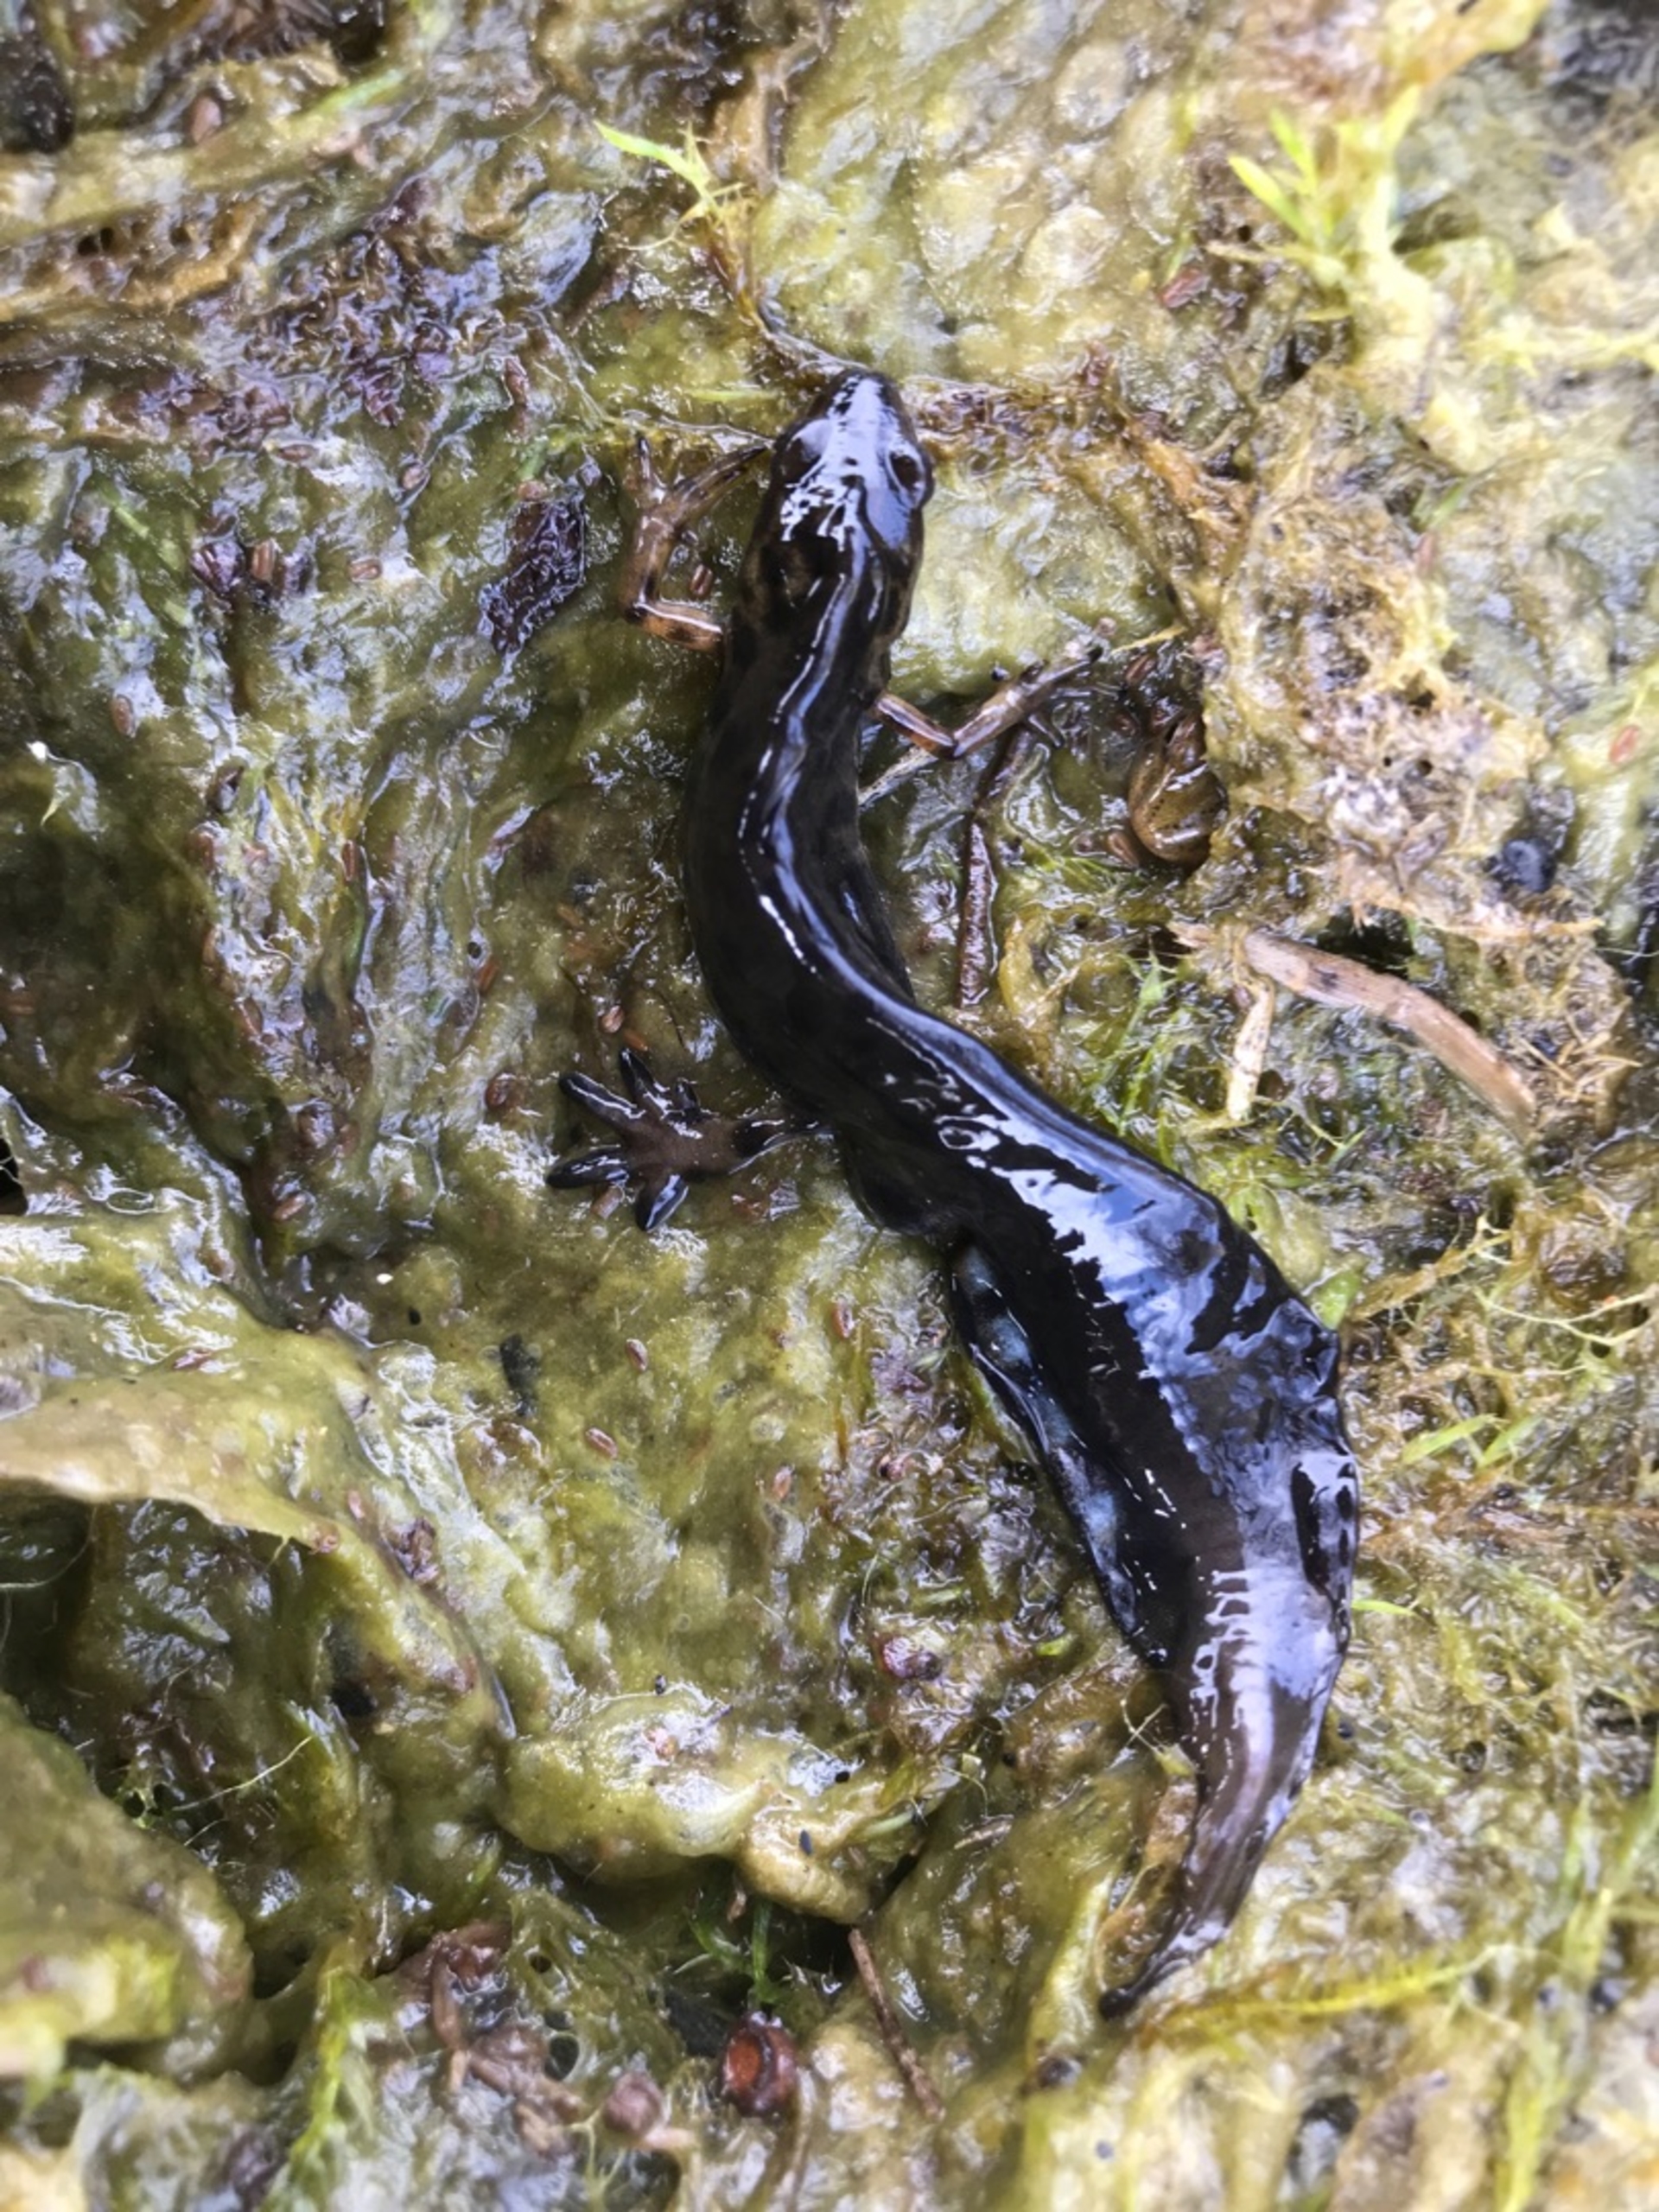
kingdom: Animalia
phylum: Chordata
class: Amphibia
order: Caudata
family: Salamandridae
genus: Lissotriton
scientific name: Lissotriton vulgaris
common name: Lille vandsalamander
